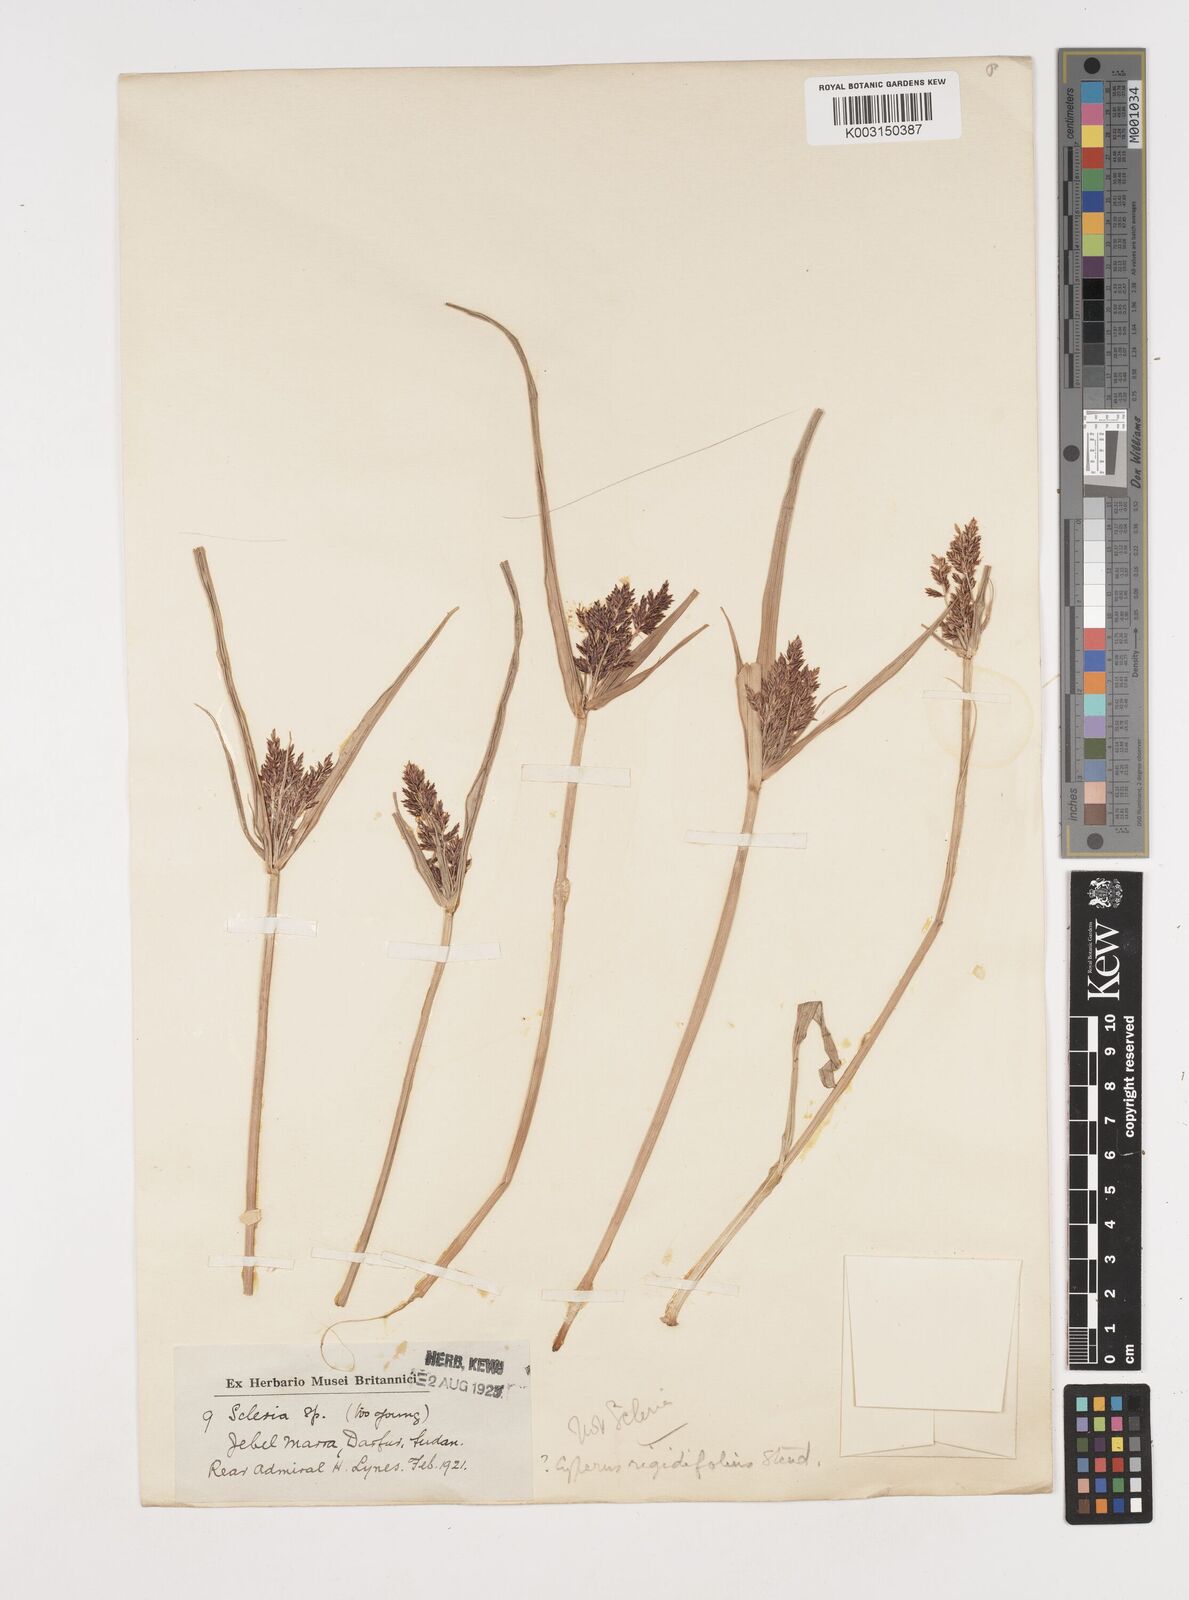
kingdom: Plantae
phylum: Tracheophyta
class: Liliopsida
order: Poales
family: Cyperaceae
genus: Cyperus
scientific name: Cyperus rigidifolius
